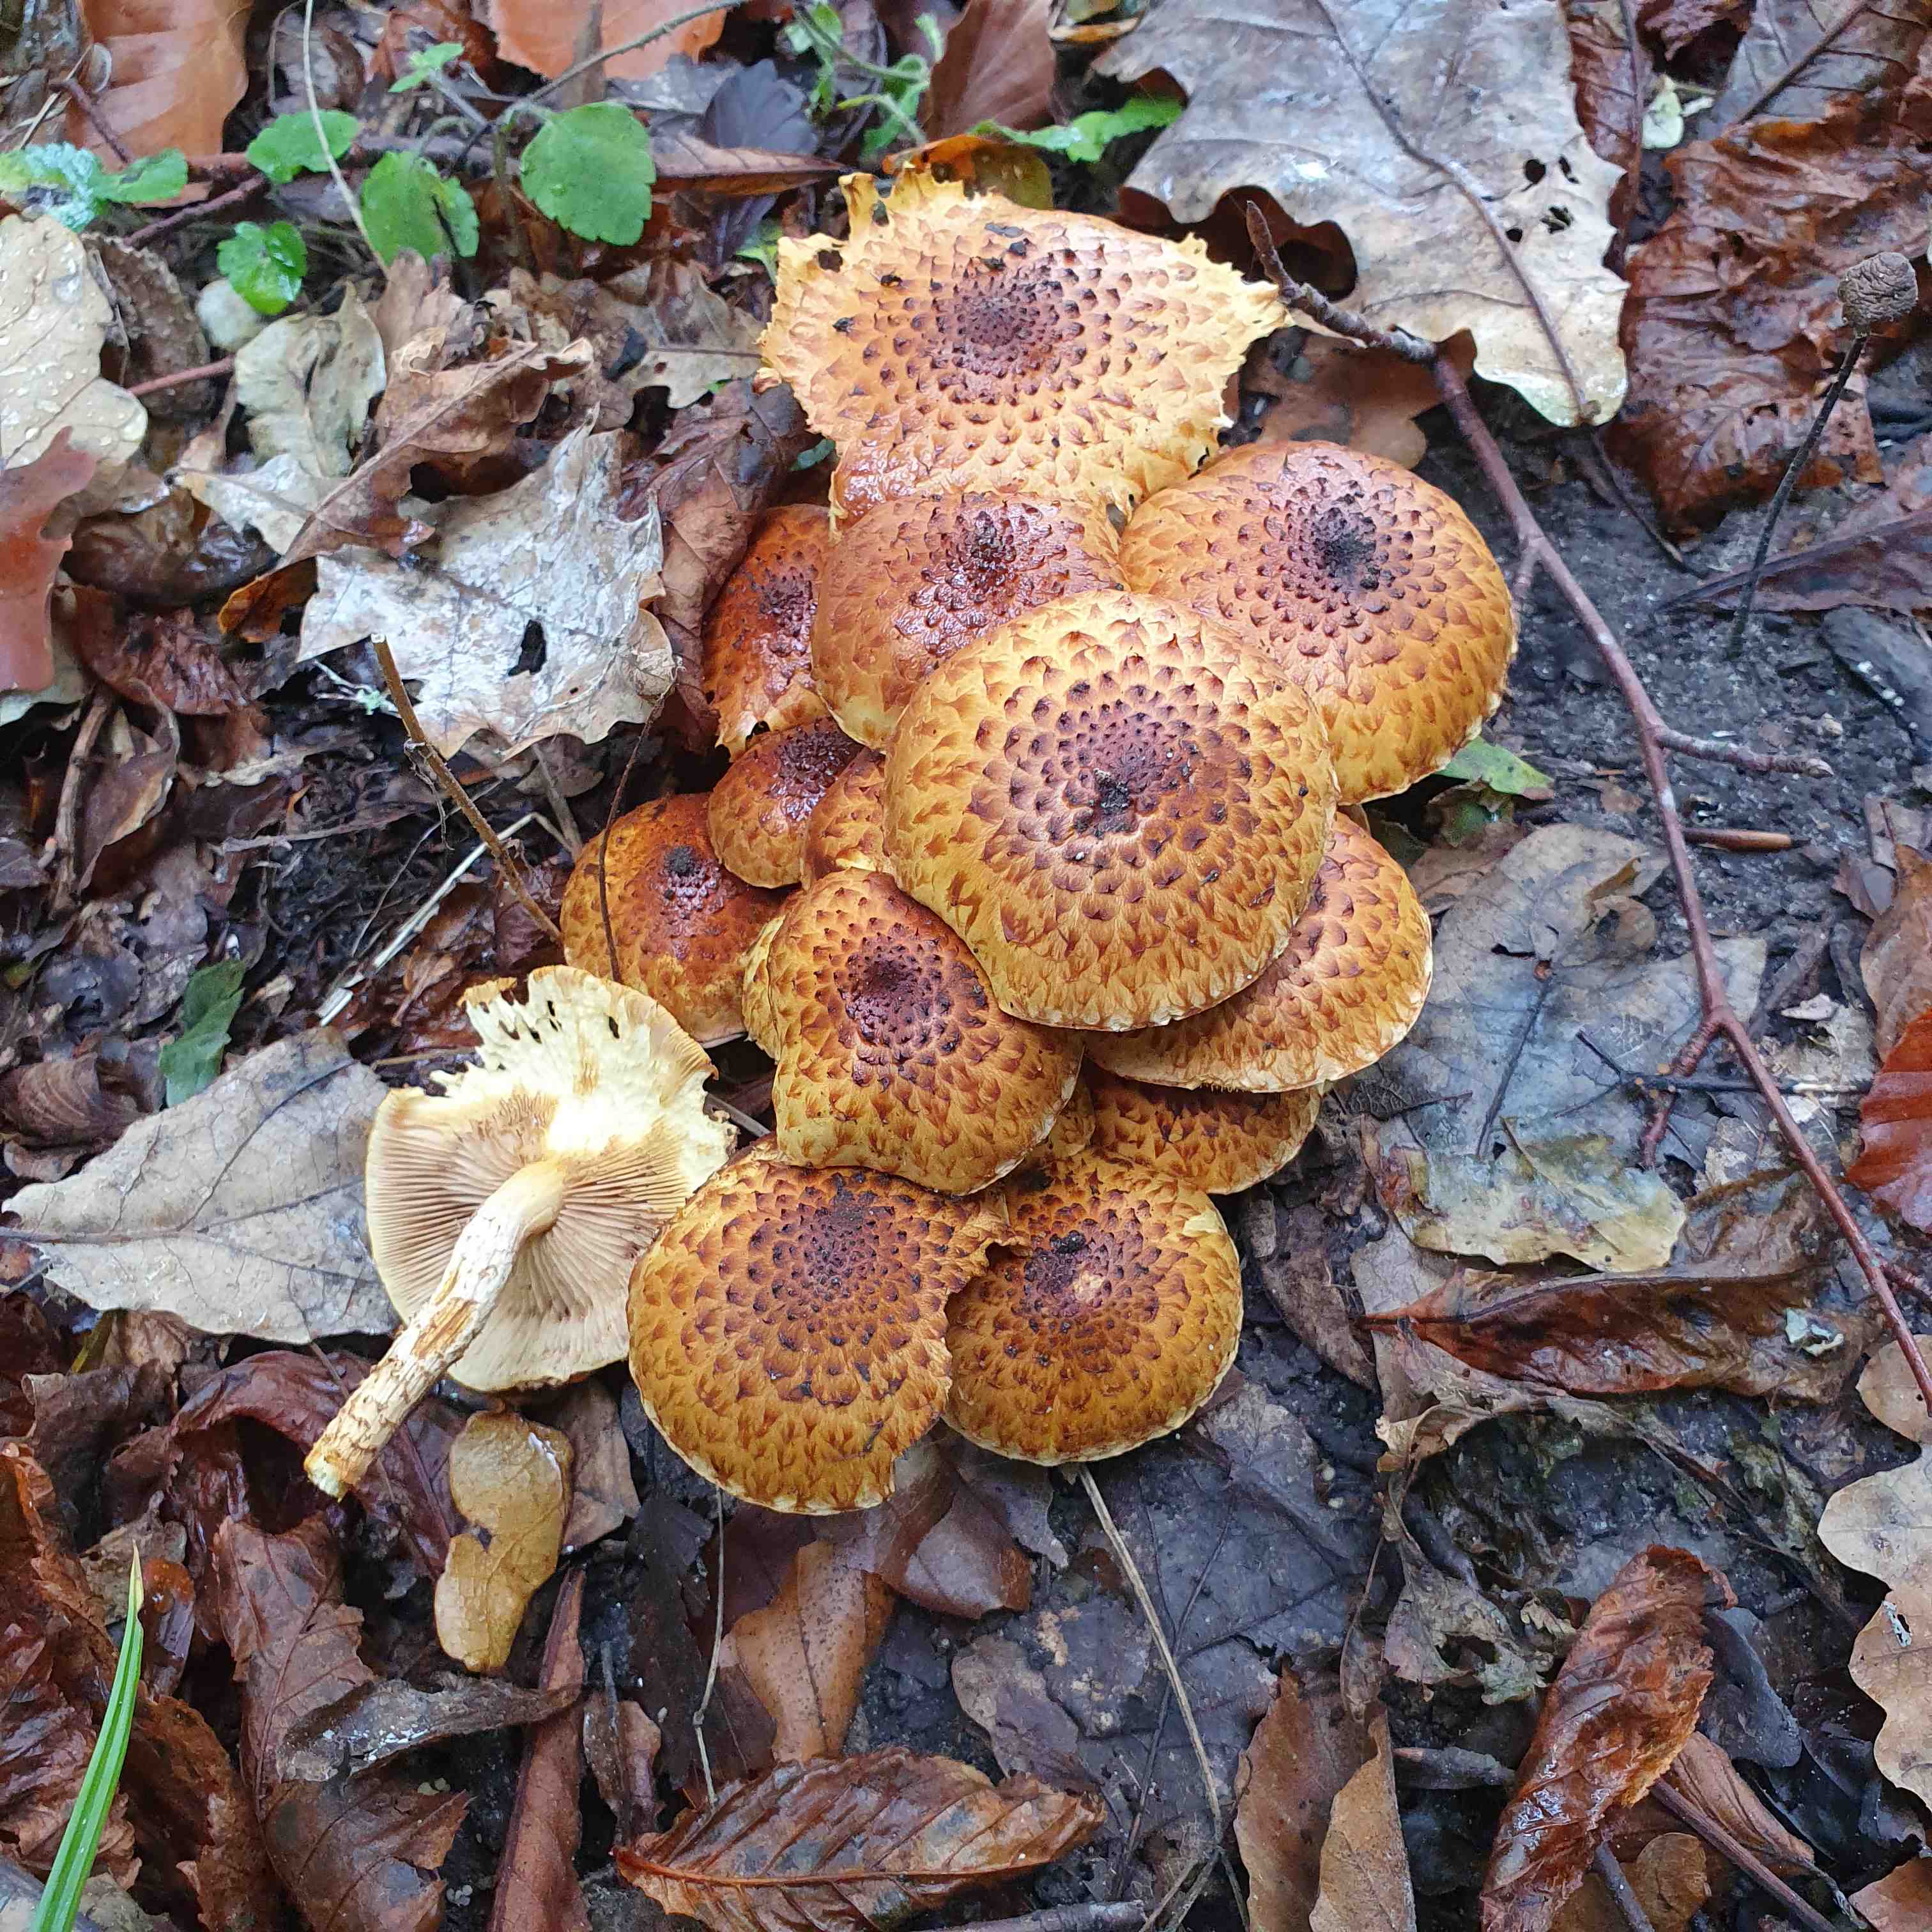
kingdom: Fungi
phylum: Basidiomycota
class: Agaricomycetes
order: Agaricales
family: Strophariaceae
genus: Pholiota
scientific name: Pholiota jahnii
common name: slimet skælhat
